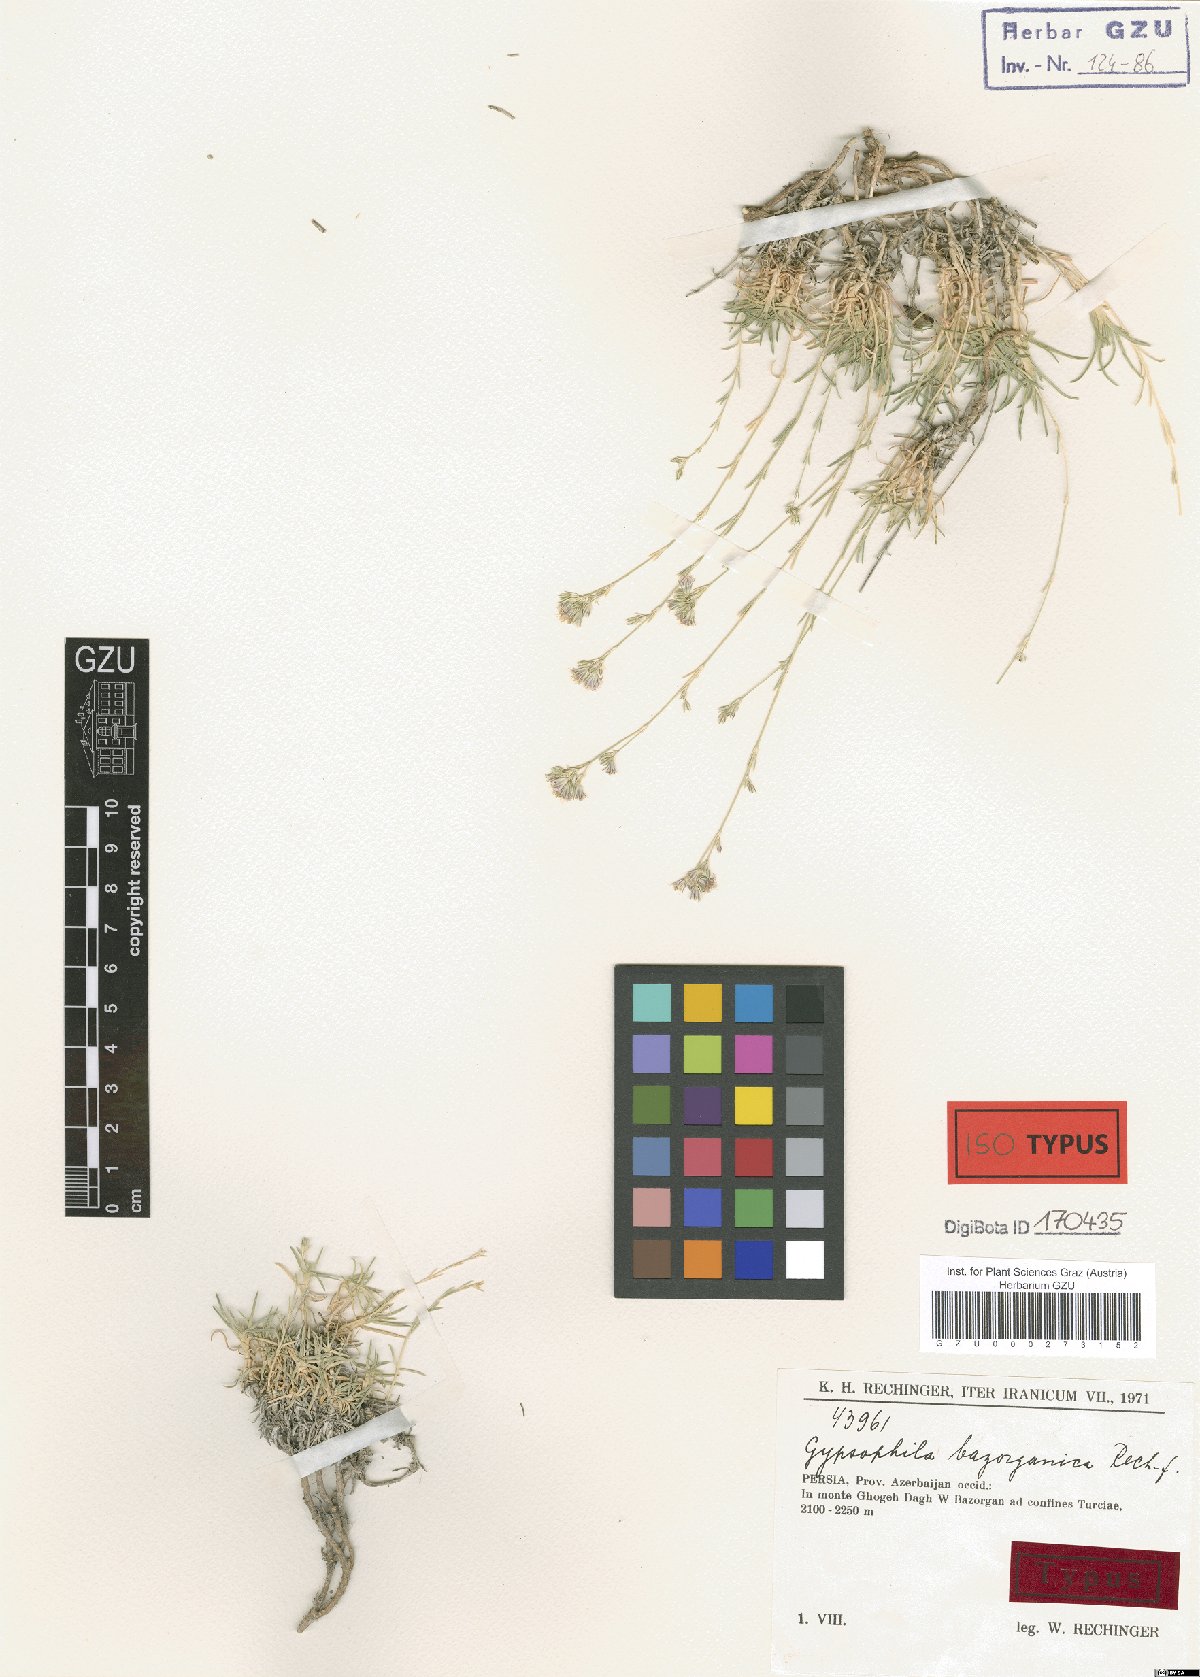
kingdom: Plantae
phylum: Tracheophyta
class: Magnoliopsida
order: Caryophyllales
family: Caryophyllaceae
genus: Gypsophila
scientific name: Gypsophila bazorganica
